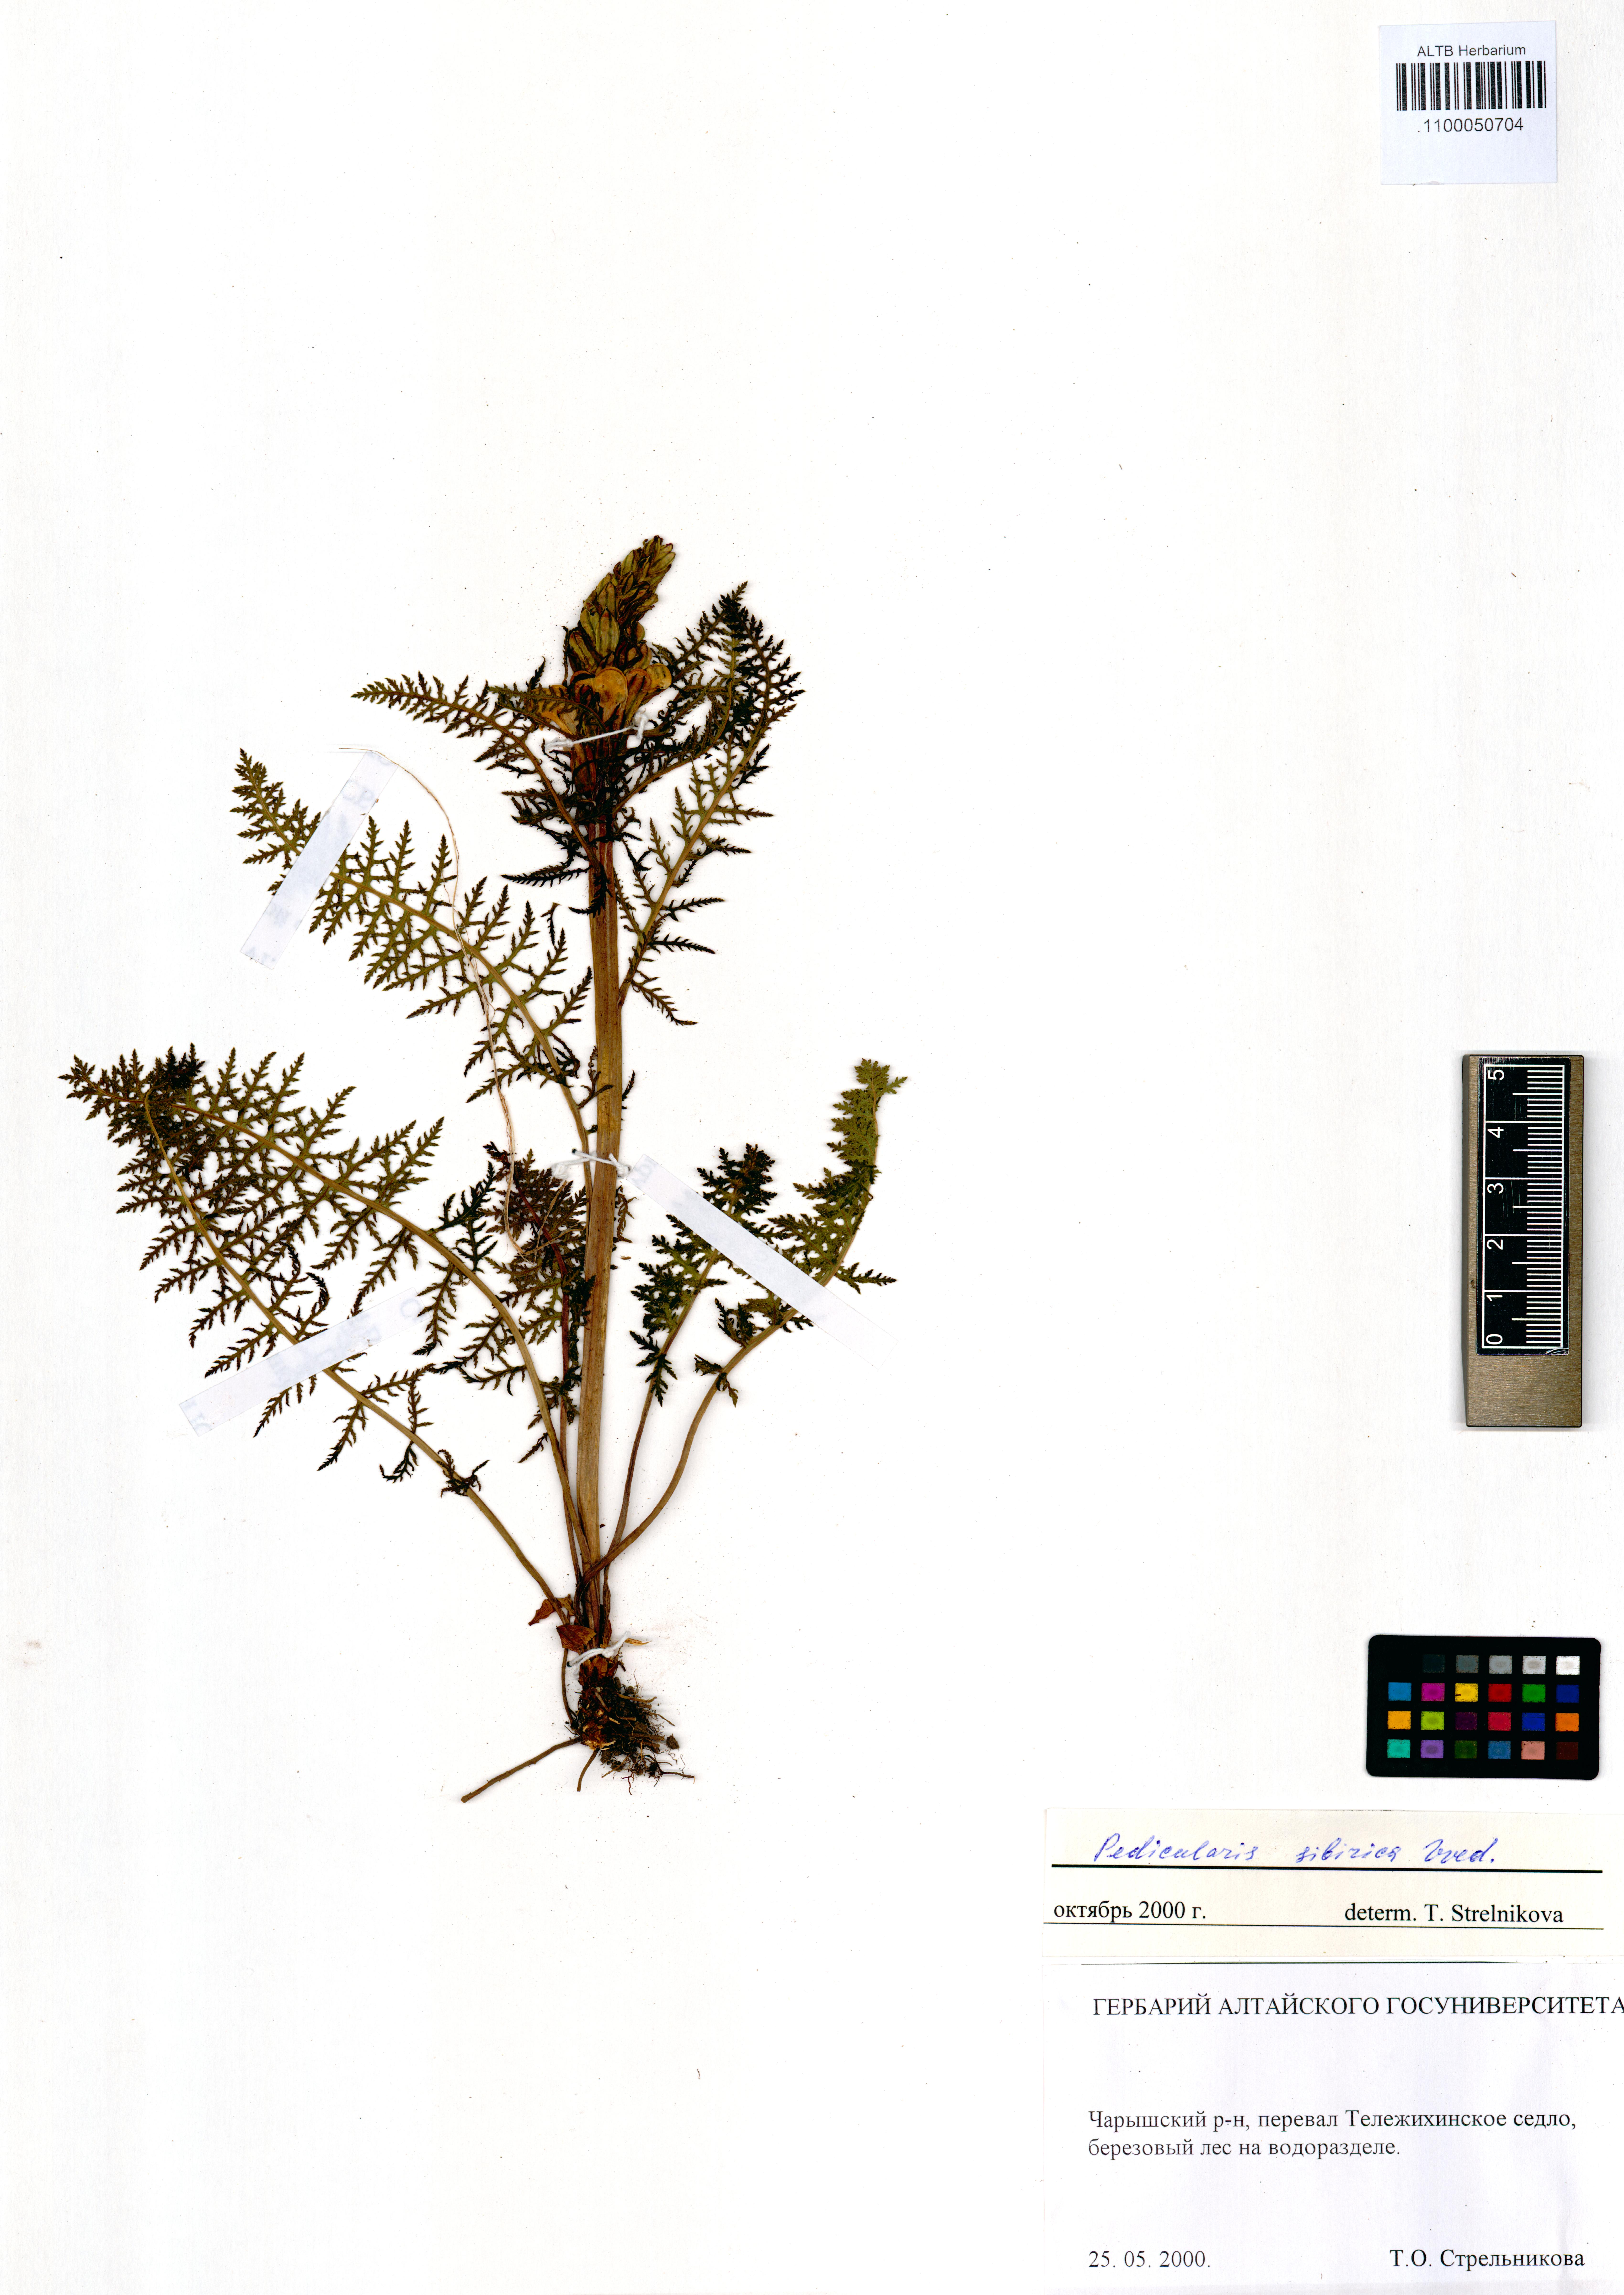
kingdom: Plantae
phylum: Tracheophyta
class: Magnoliopsida
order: Lamiales
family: Orobanchaceae
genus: Pedicularis
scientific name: Pedicularis sibirica
